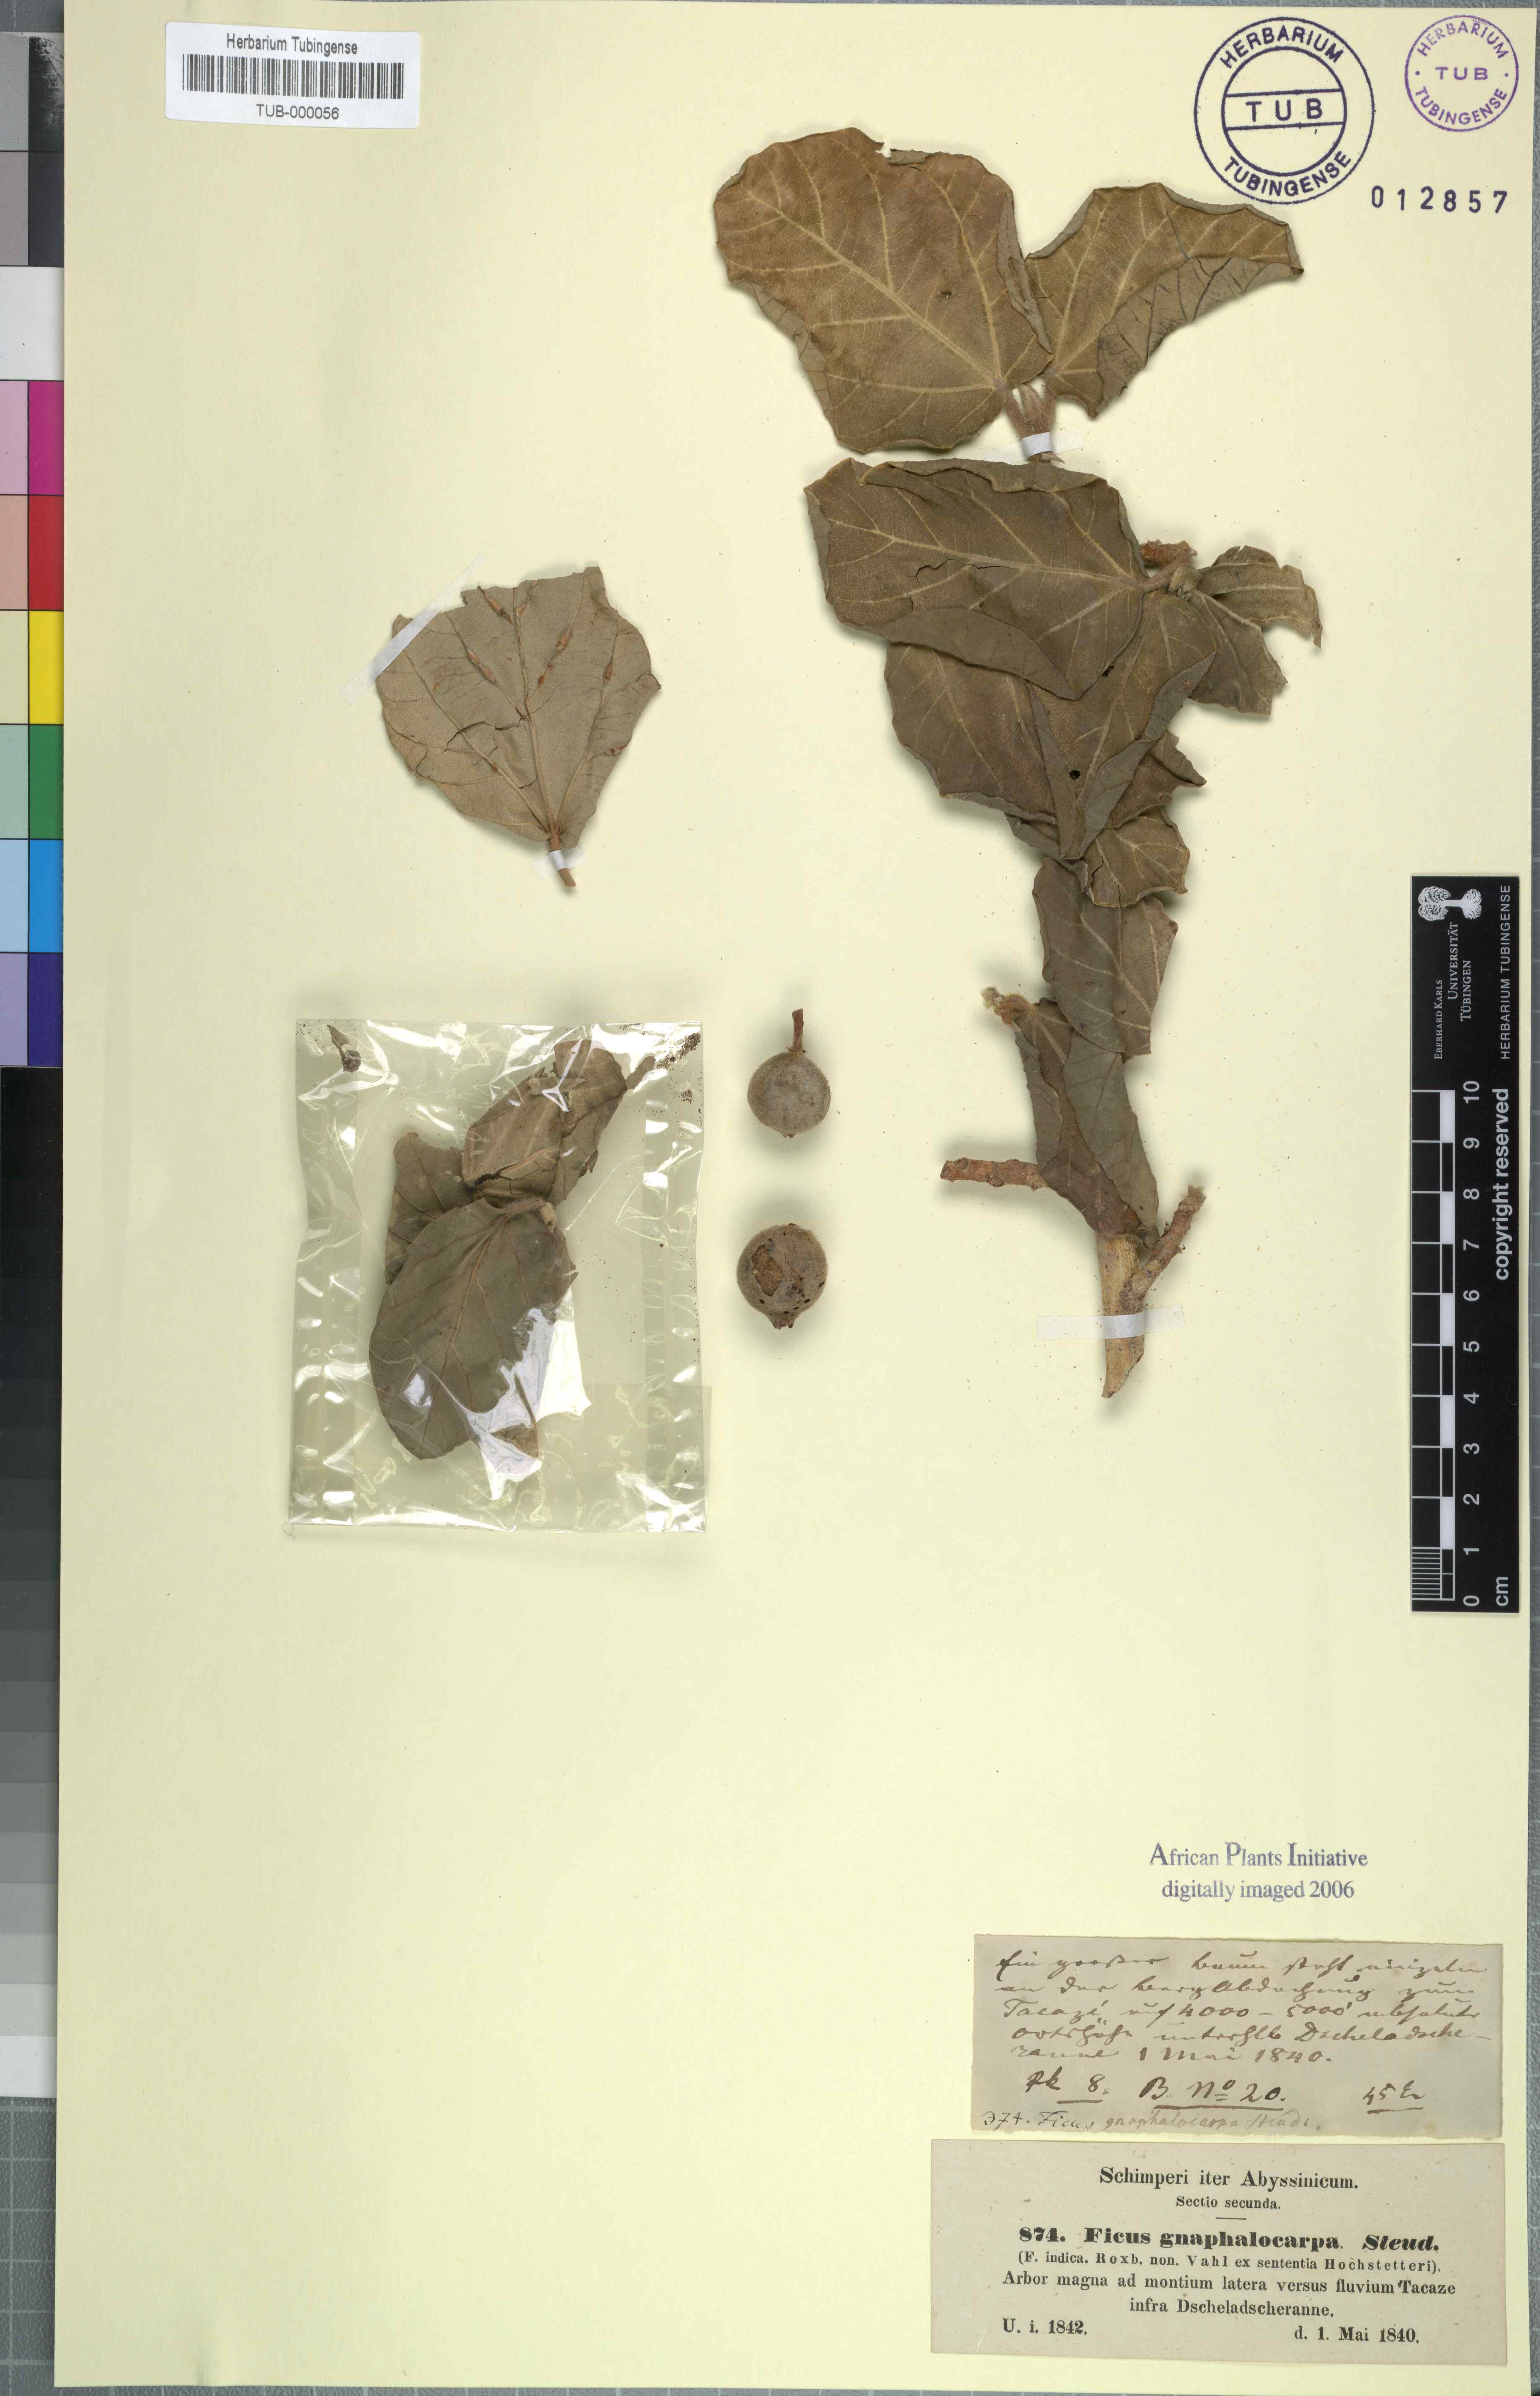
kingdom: Plantae
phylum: Tracheophyta
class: Magnoliopsida
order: Rosales
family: Moraceae
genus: Ficus
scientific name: Ficus sycomorus
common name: Sycomore
